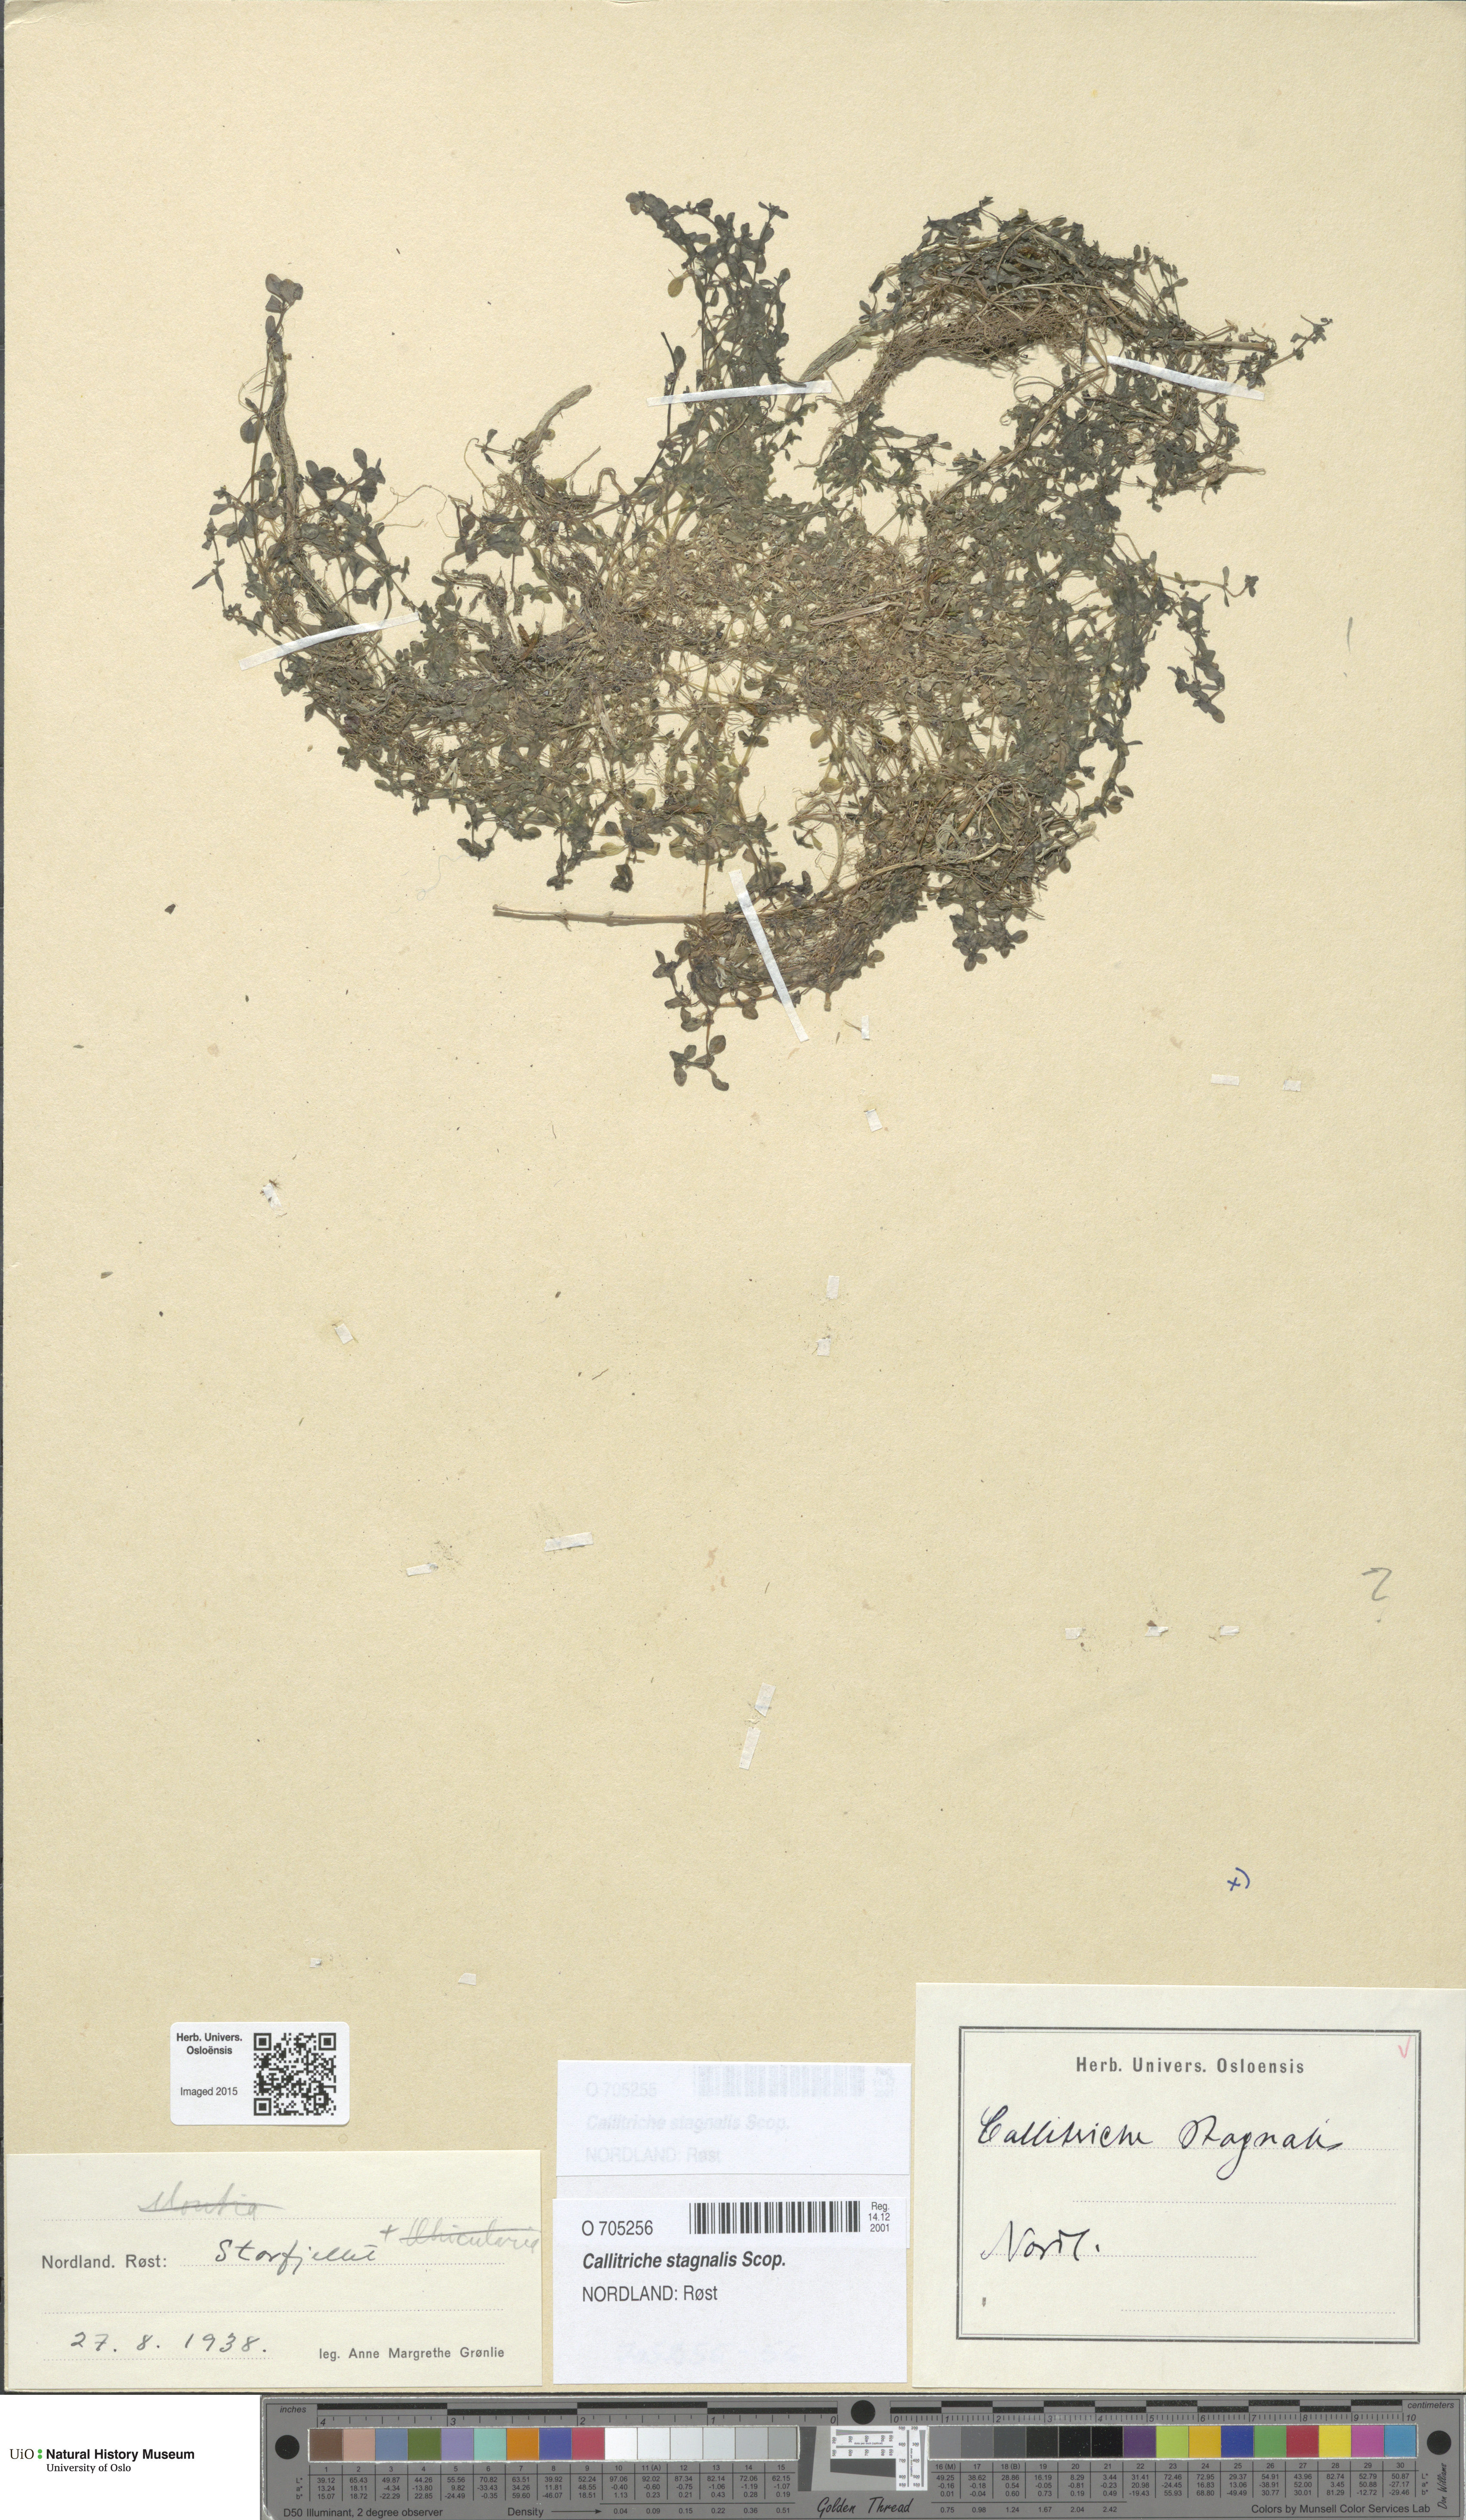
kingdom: Plantae
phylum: Tracheophyta
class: Magnoliopsida
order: Lamiales
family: Plantaginaceae
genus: Callitriche
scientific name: Callitriche stagnalis
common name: Common water-starwort
